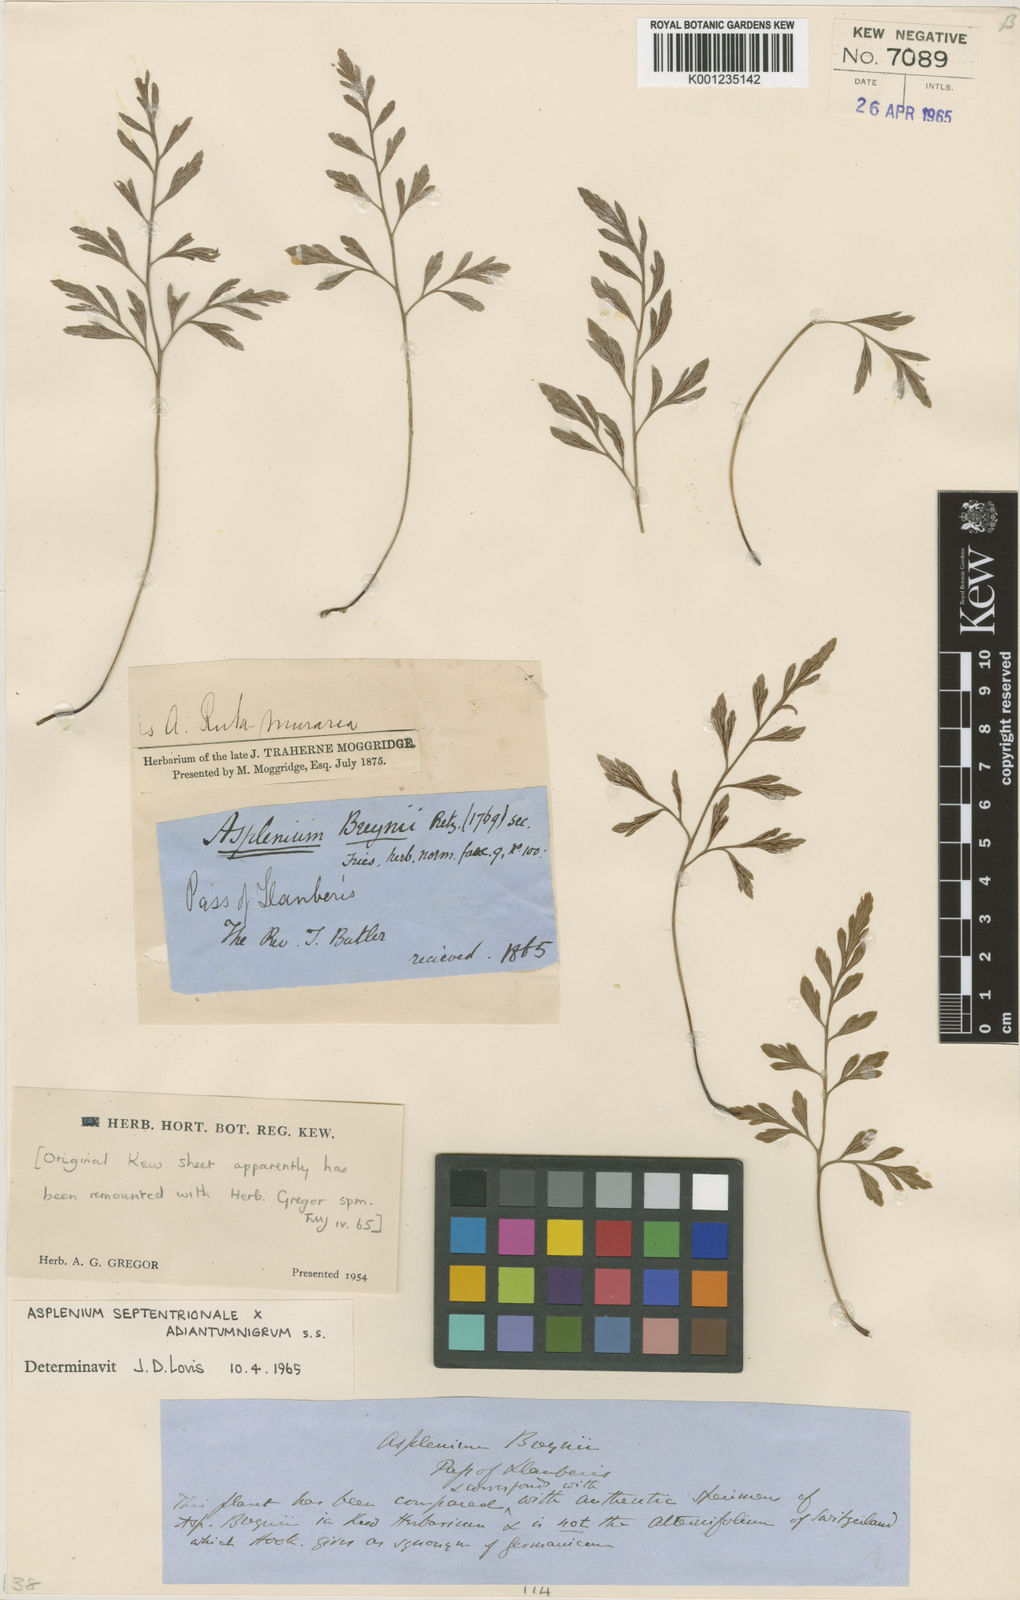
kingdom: Plantae
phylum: Tracheophyta
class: Polypodiopsida
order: Polypodiales
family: Aspleniaceae
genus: Asplenium
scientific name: Asplenium
